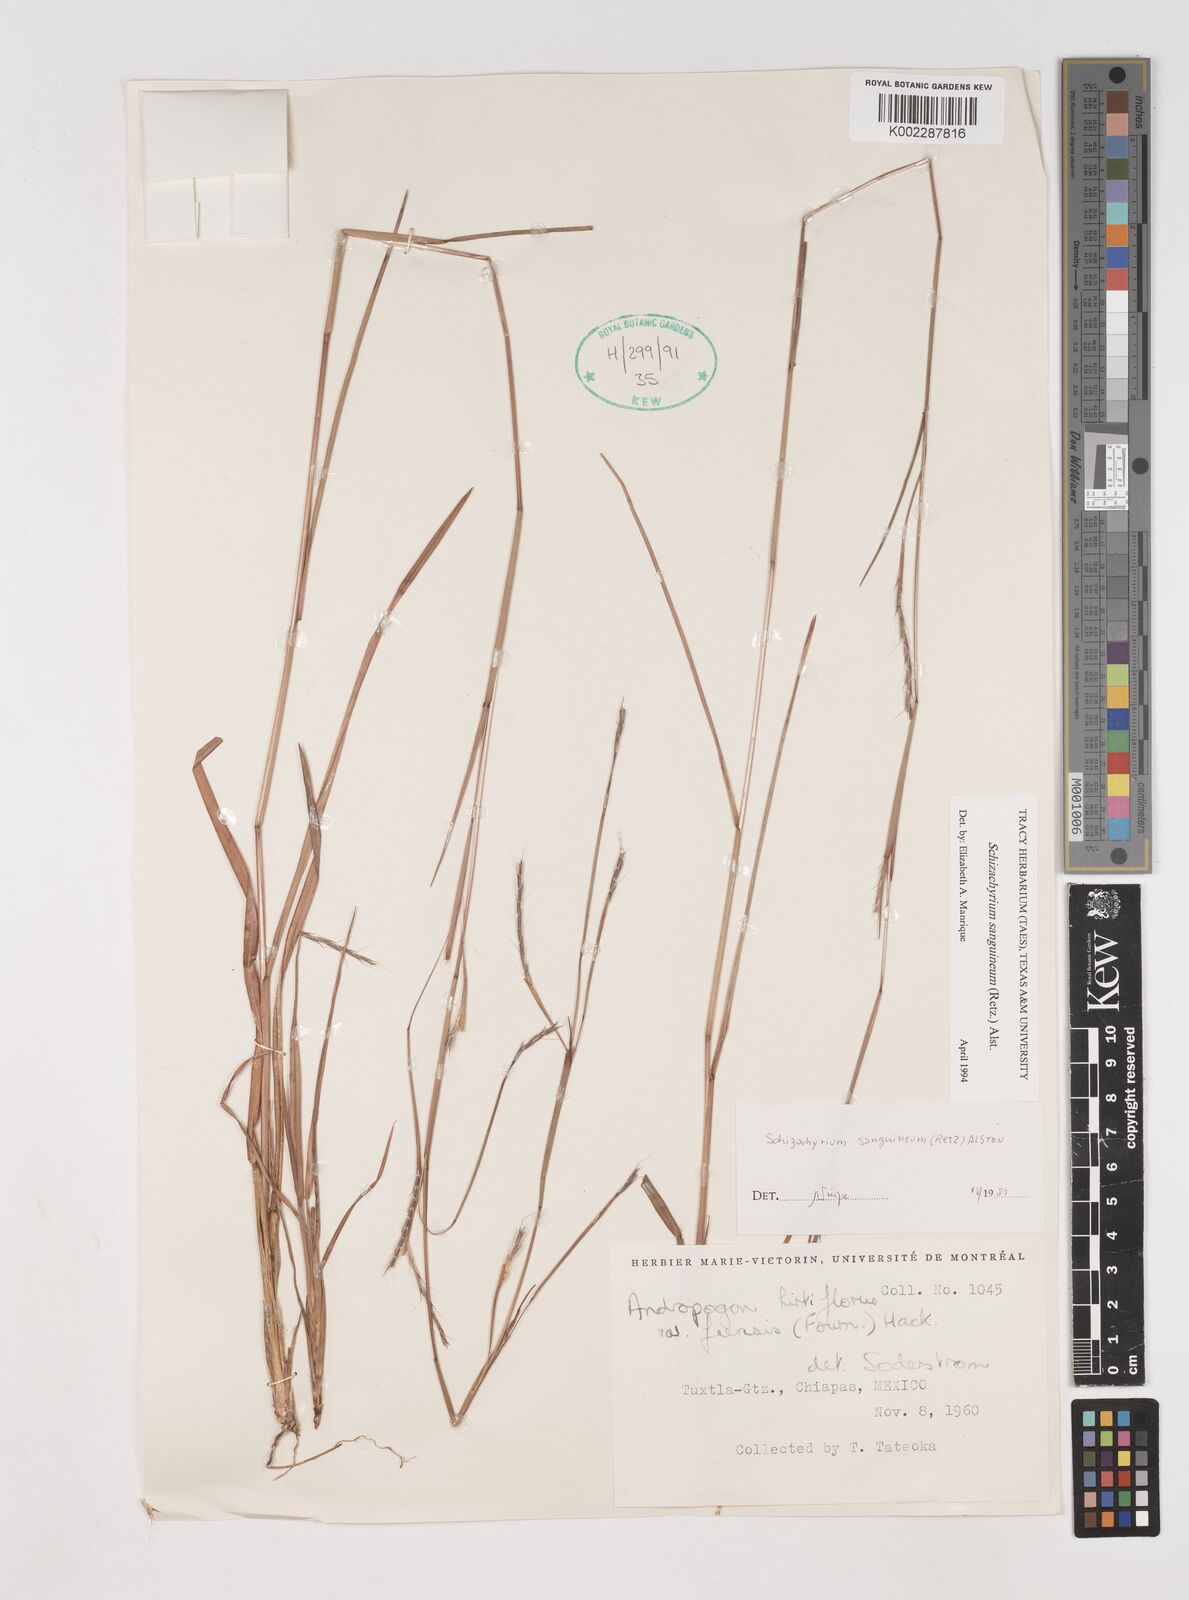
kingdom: Plantae
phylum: Tracheophyta
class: Liliopsida
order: Poales
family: Poaceae
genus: Schizachyrium
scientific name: Schizachyrium sanguineum
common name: Crimson bluestem
